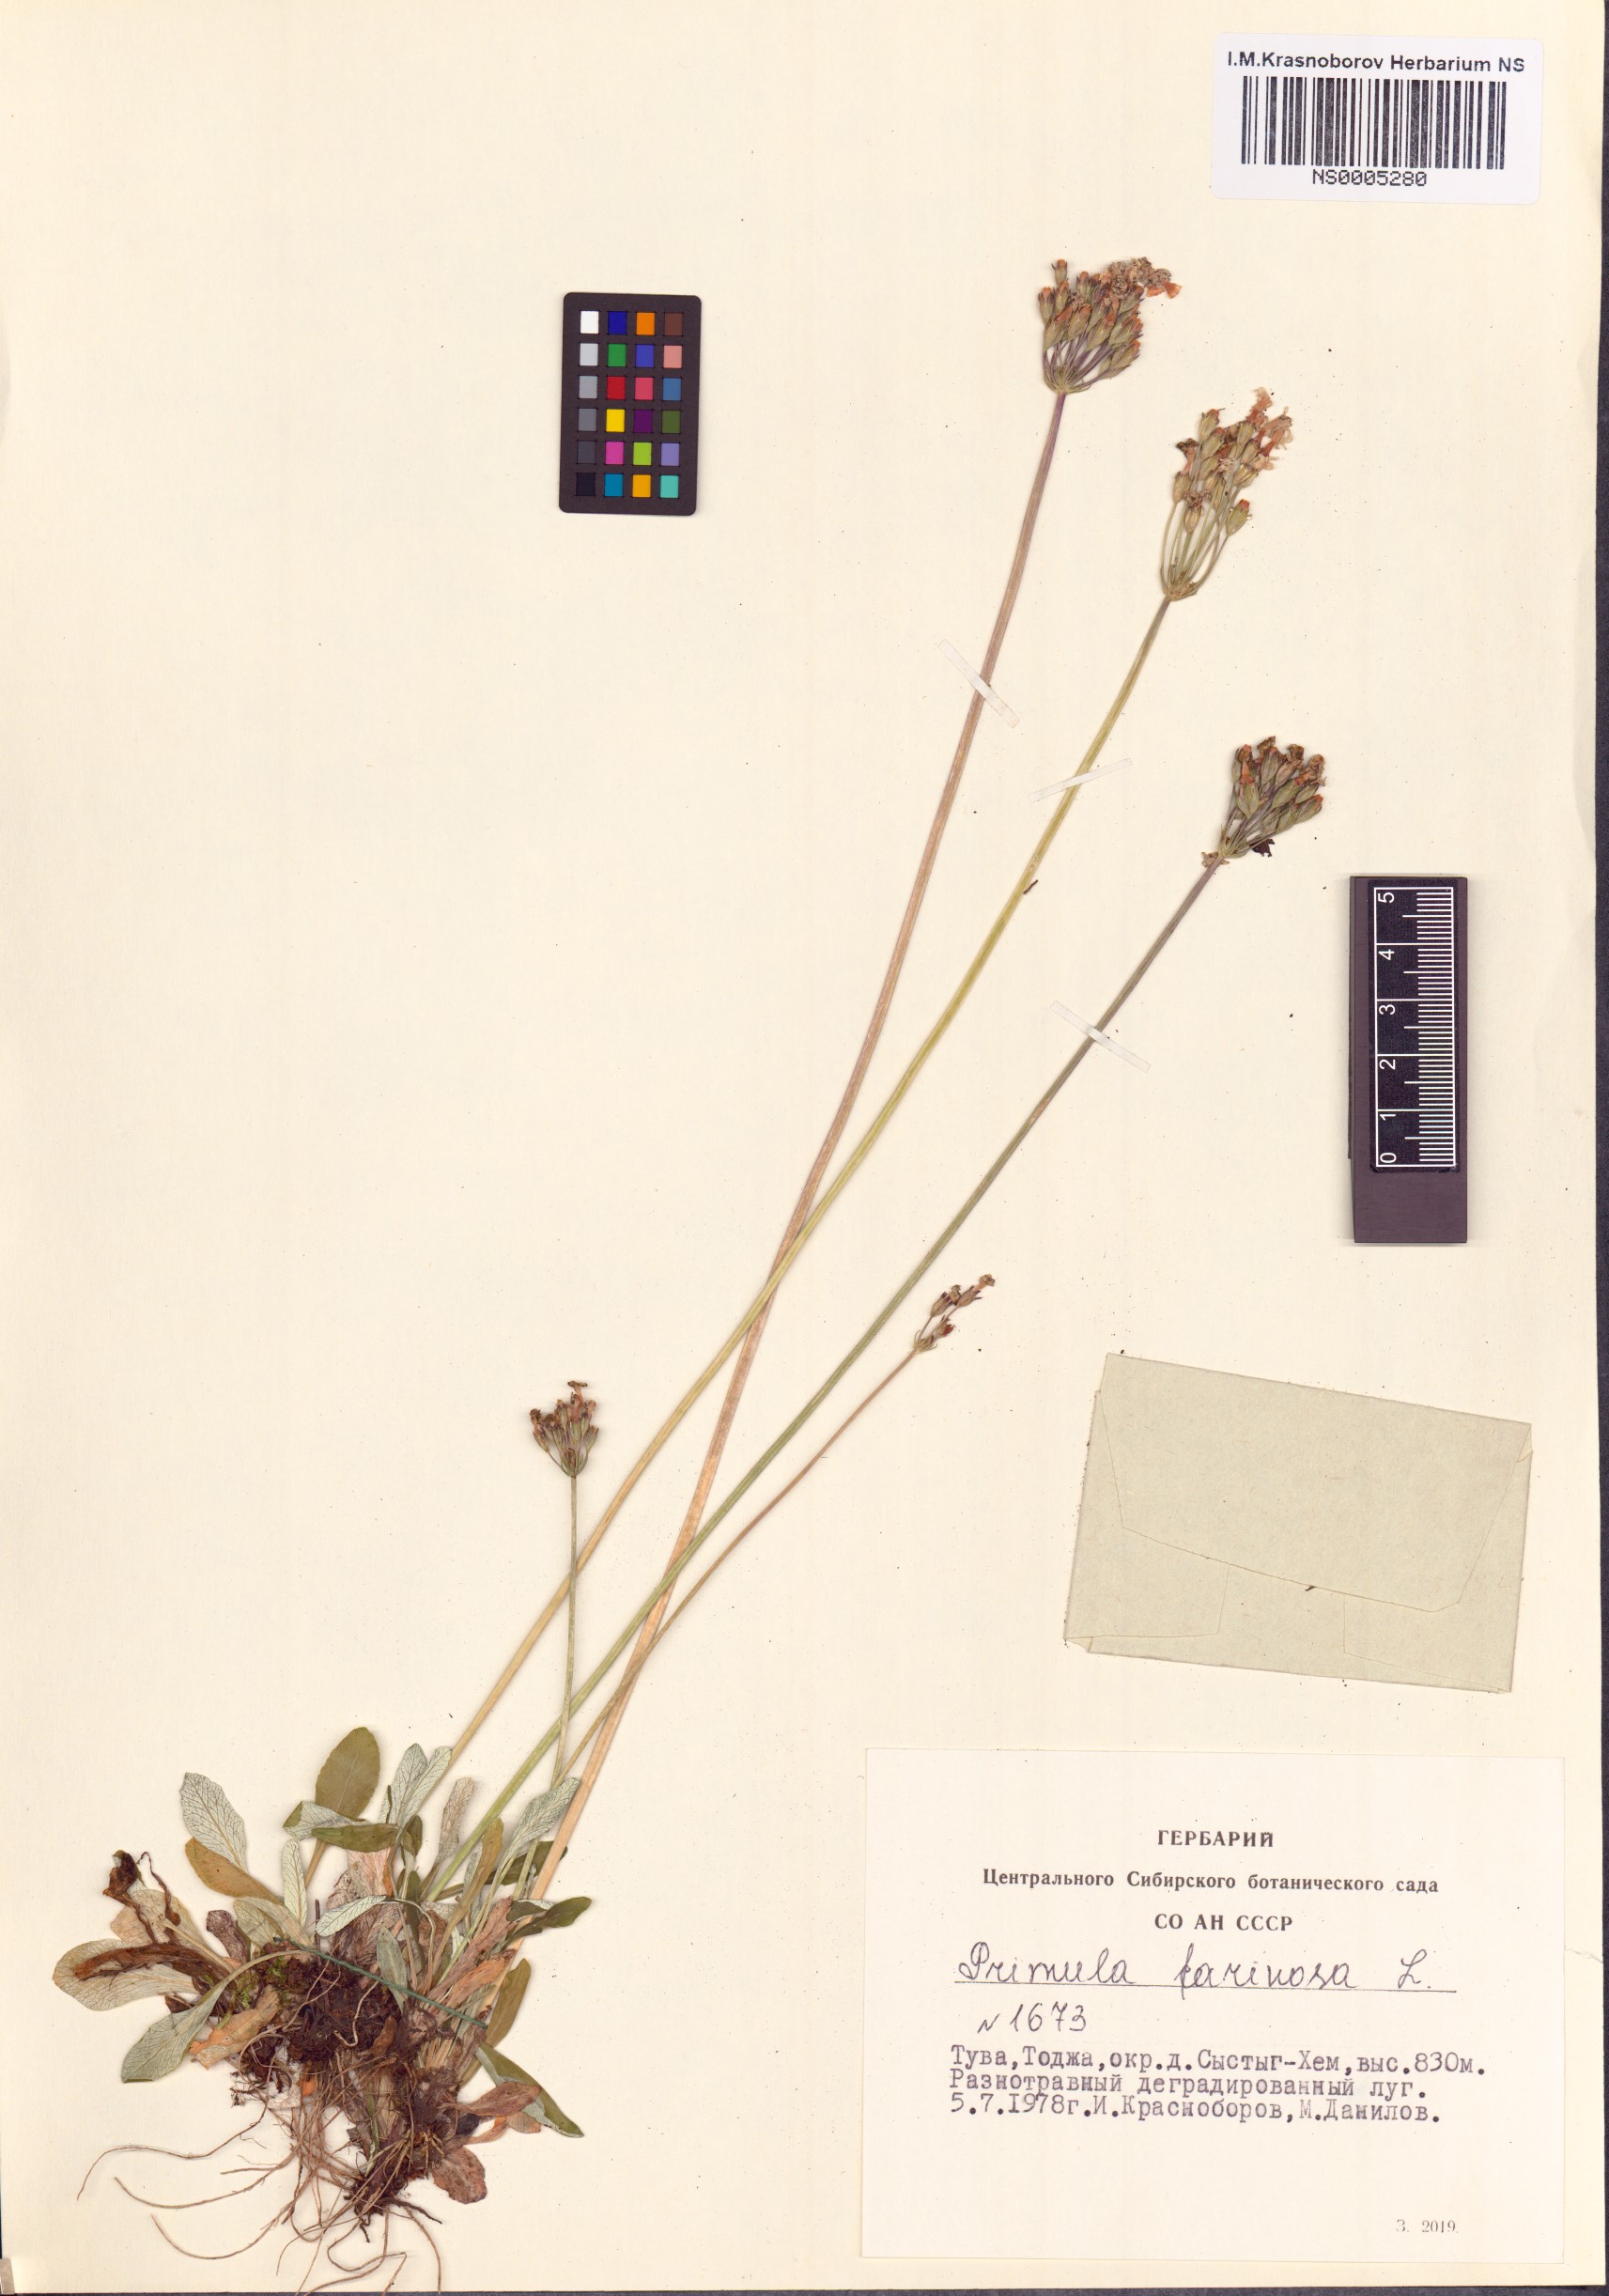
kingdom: Plantae
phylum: Tracheophyta
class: Magnoliopsida
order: Ericales
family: Primulaceae
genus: Primula
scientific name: Primula farinosa
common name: Bird's-eye primrose
